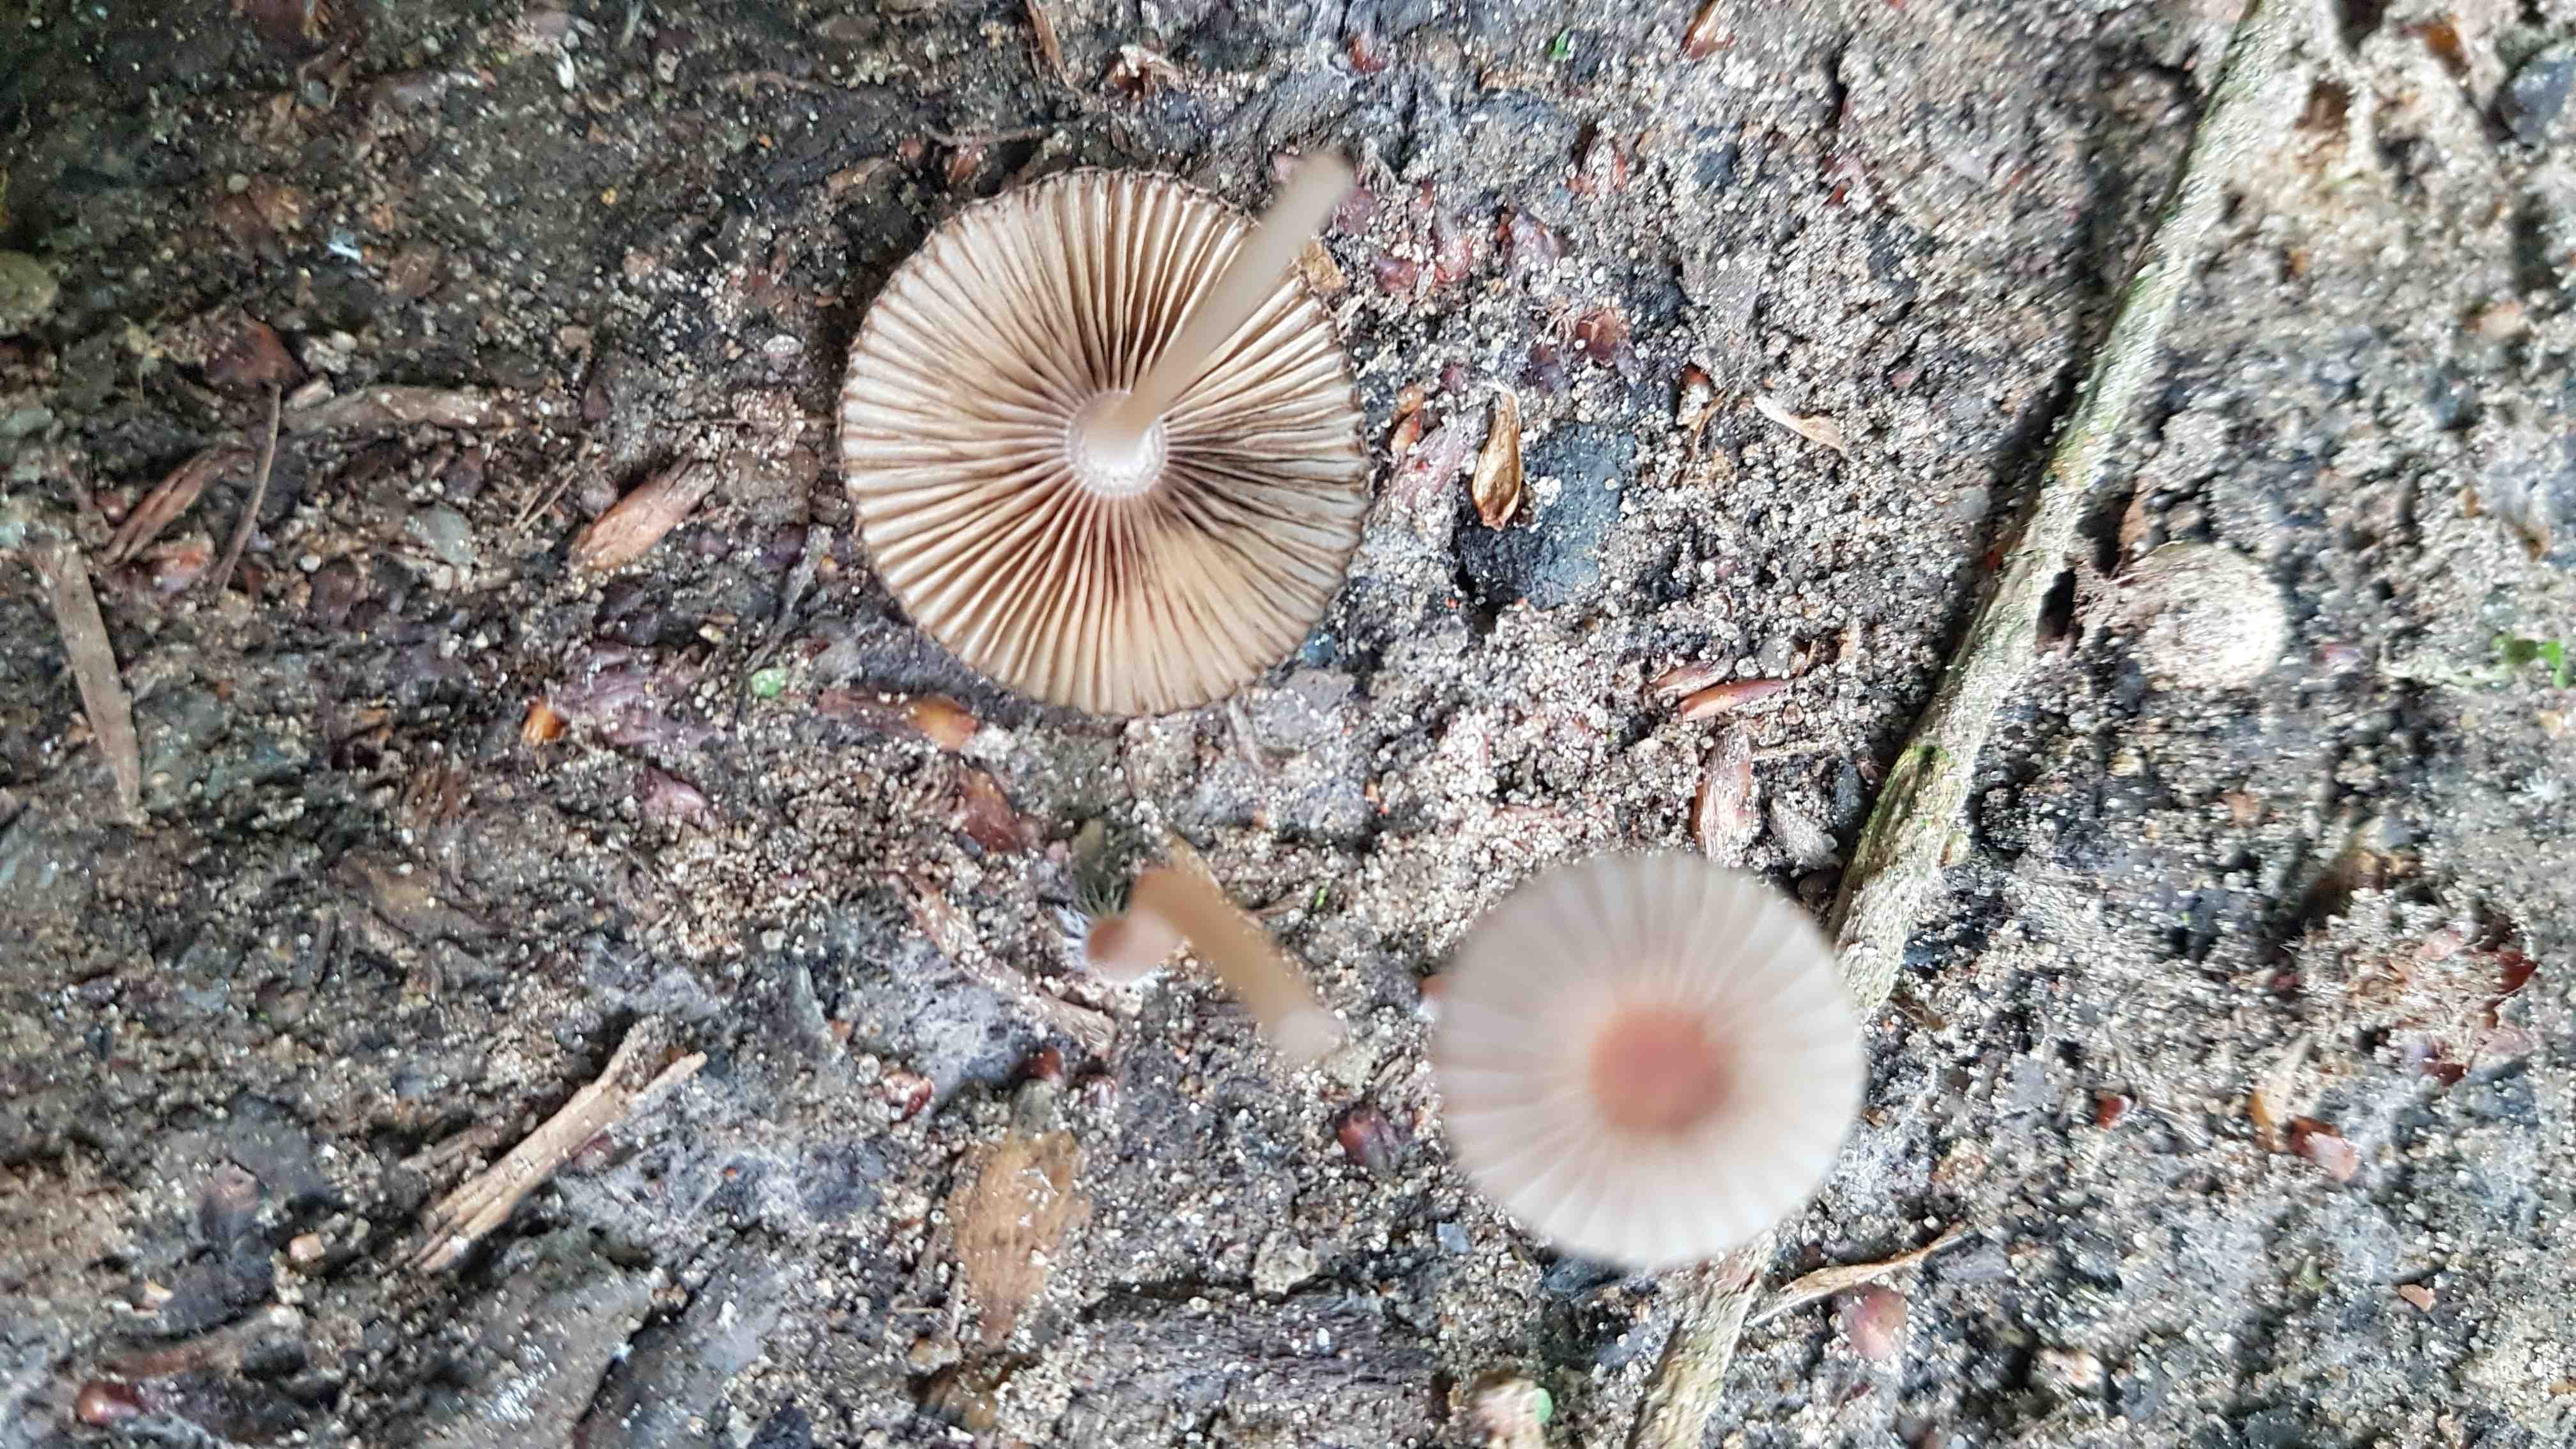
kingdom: Fungi
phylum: Basidiomycota
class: Agaricomycetes
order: Agaricales
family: Psathyrellaceae
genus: Parasola
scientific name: Parasola
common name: hjulhat
